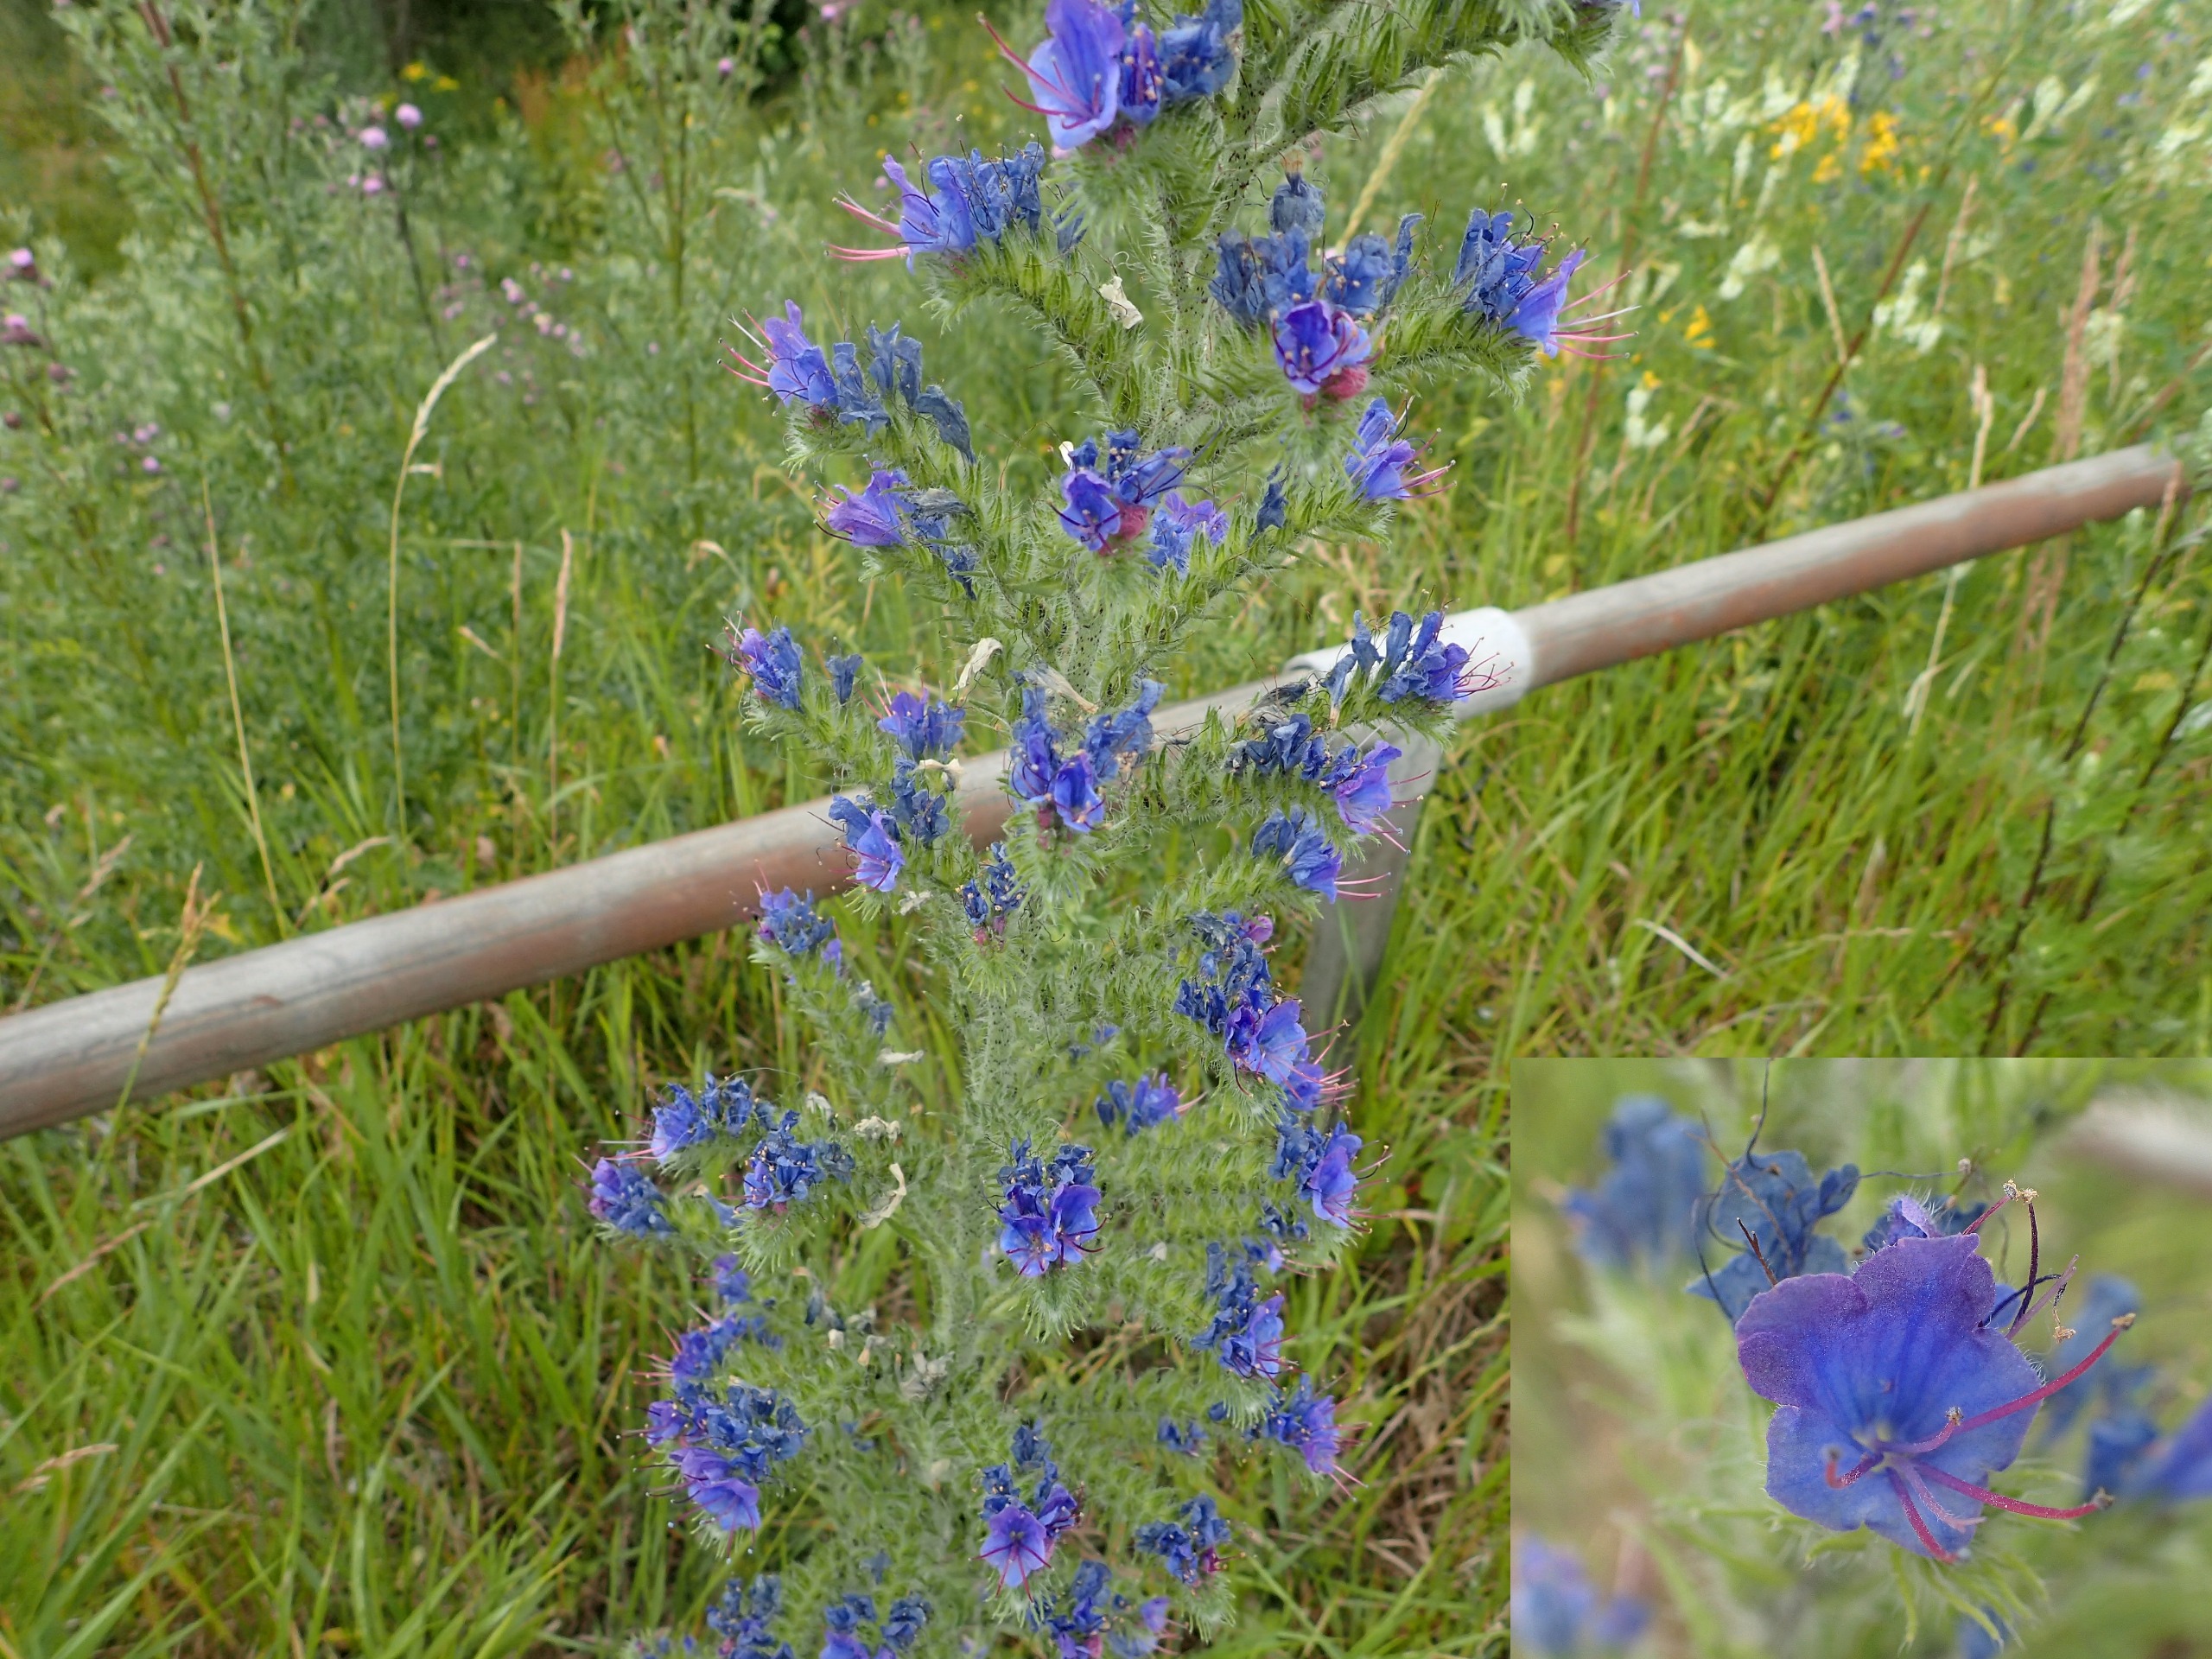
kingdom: Plantae
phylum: Tracheophyta
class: Magnoliopsida
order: Boraginales
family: Boraginaceae
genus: Echium
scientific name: Echium vulgare
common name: Slangehoved
